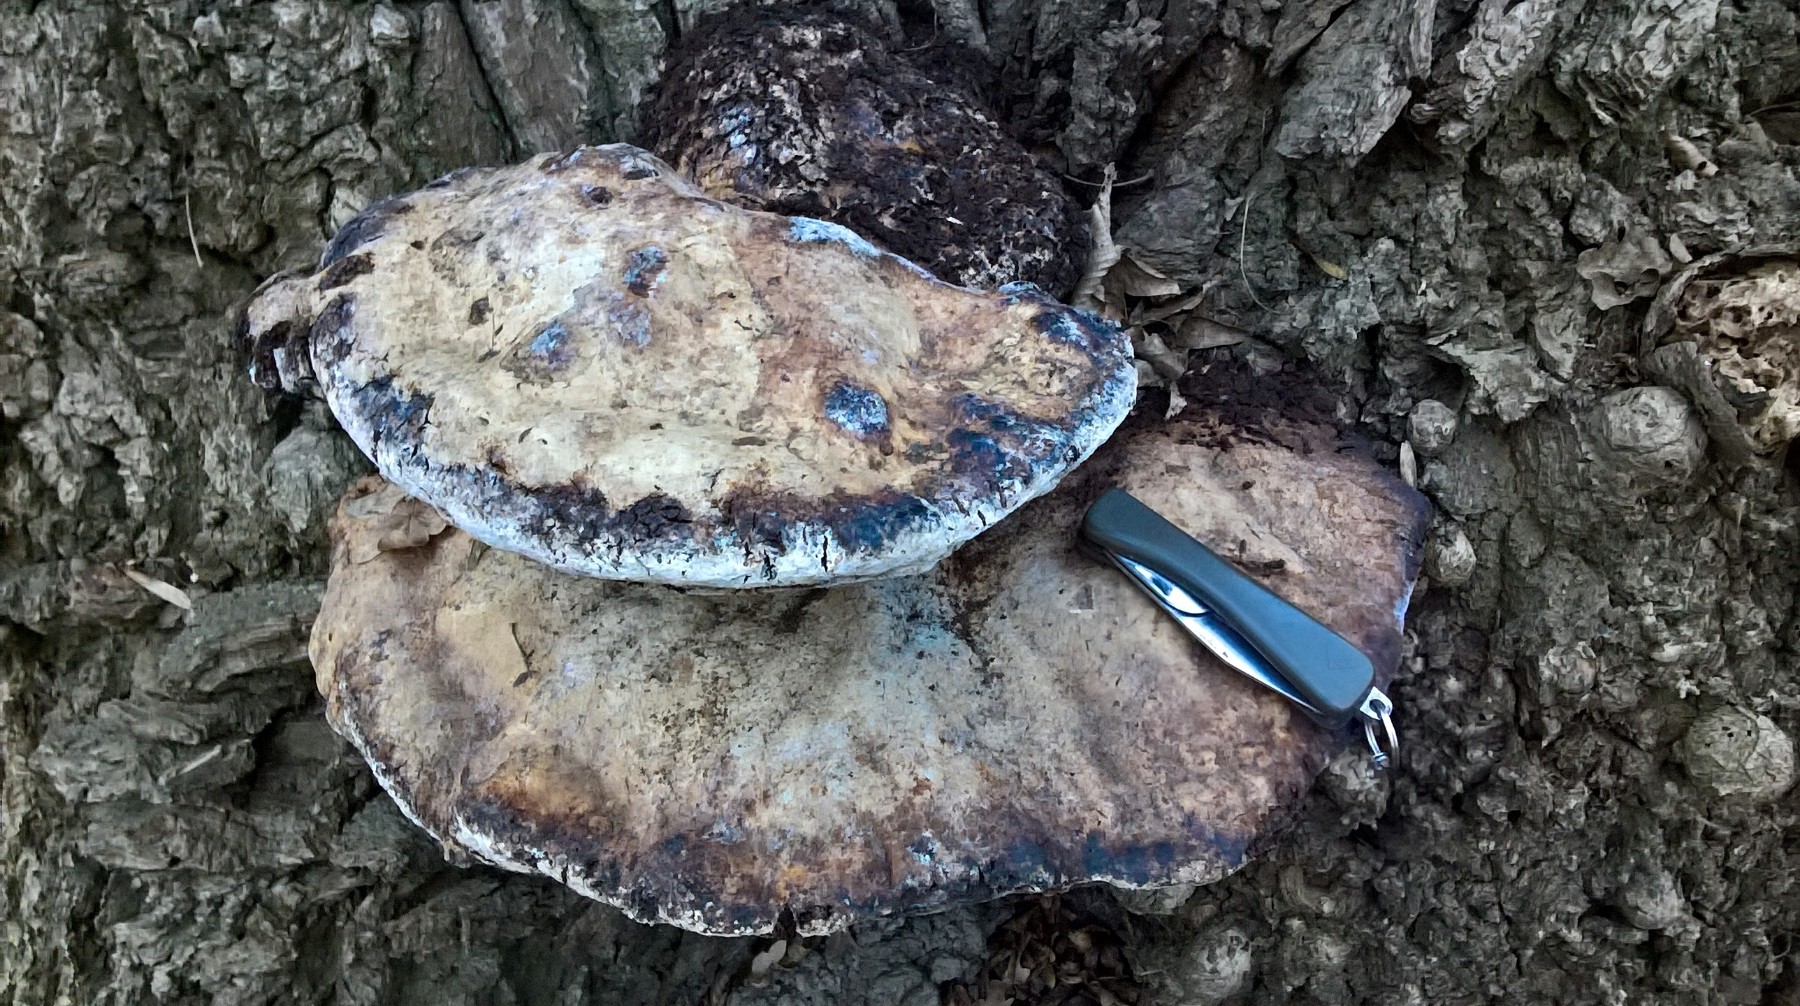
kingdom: Fungi
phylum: Basidiomycota
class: Agaricomycetes
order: Hymenochaetales
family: Hymenochaetaceae
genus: Pseudoinonotus
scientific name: Pseudoinonotus dryadeus
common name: ege-spejlporesvamp
